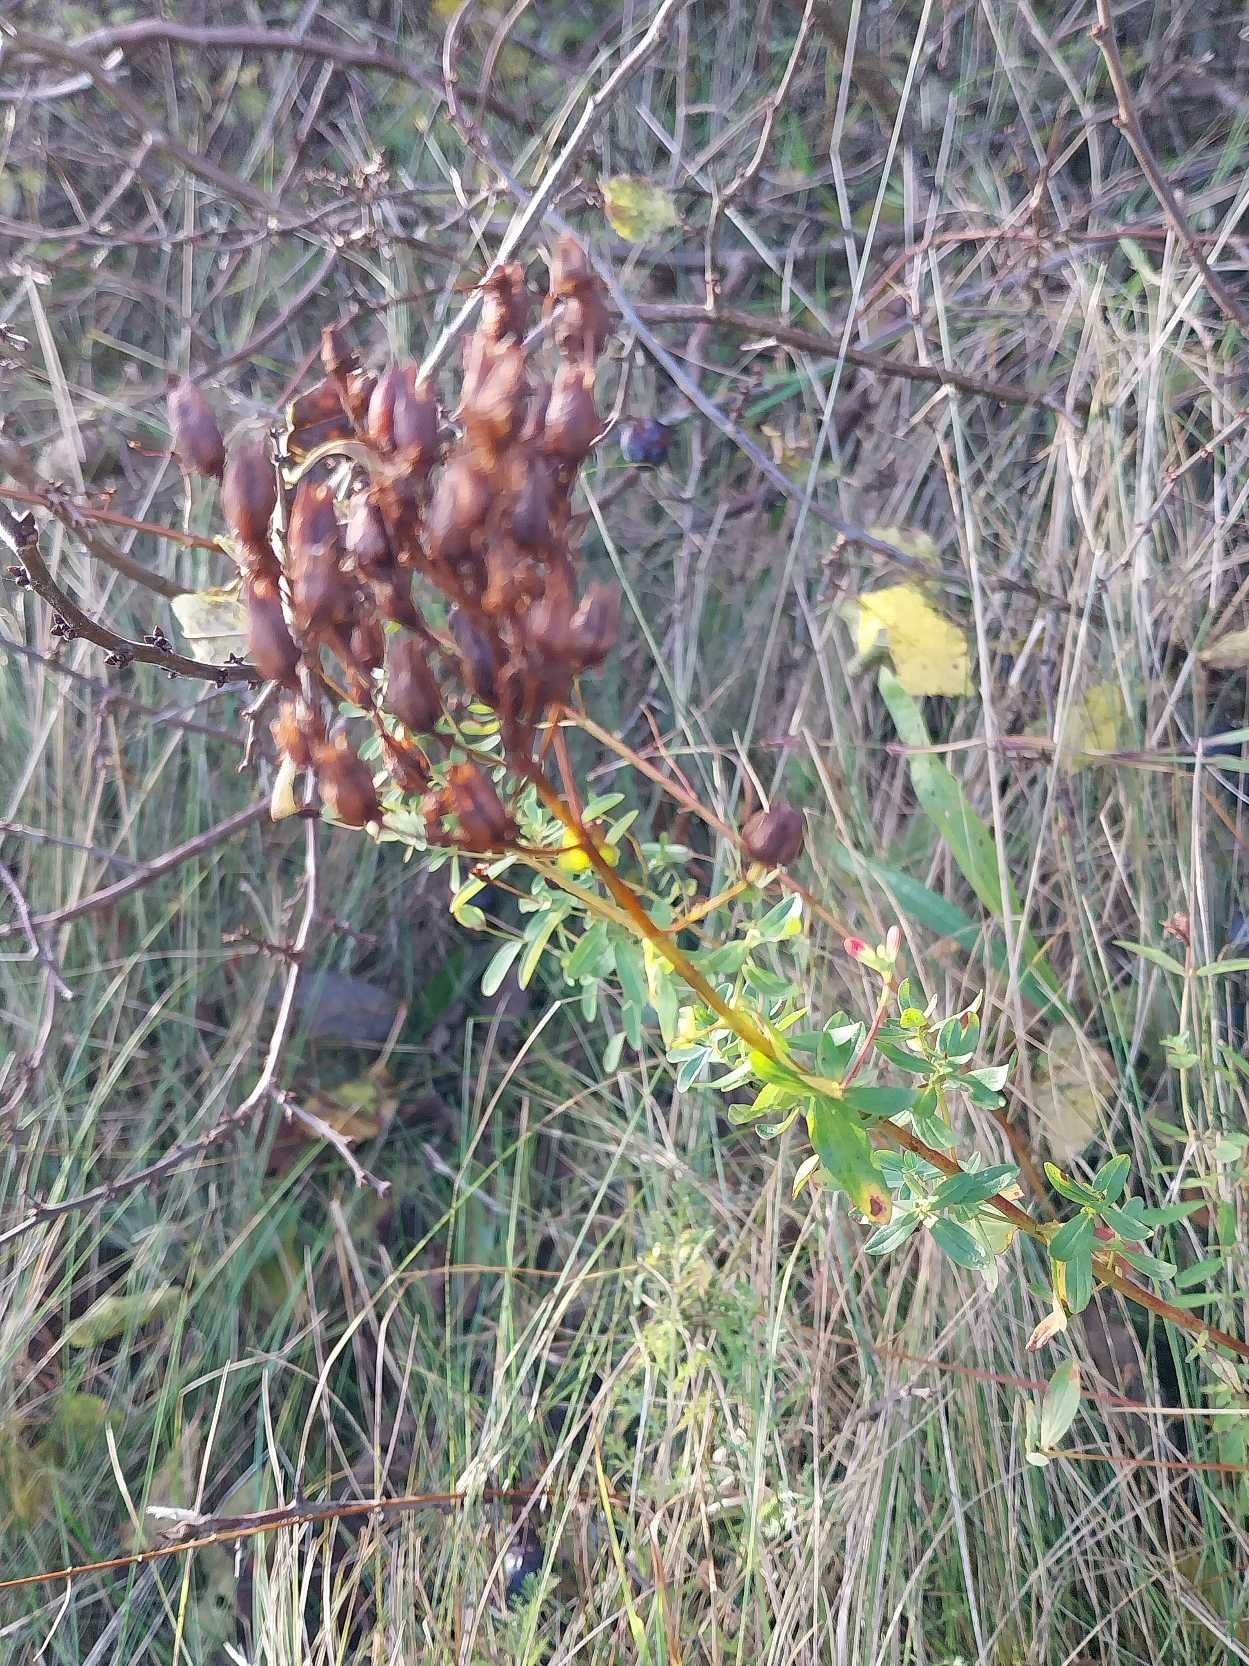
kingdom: Plantae
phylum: Tracheophyta
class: Magnoliopsida
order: Malpighiales
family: Hypericaceae
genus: Hypericum
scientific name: Hypericum perforatum
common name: Prikbladet perikon
